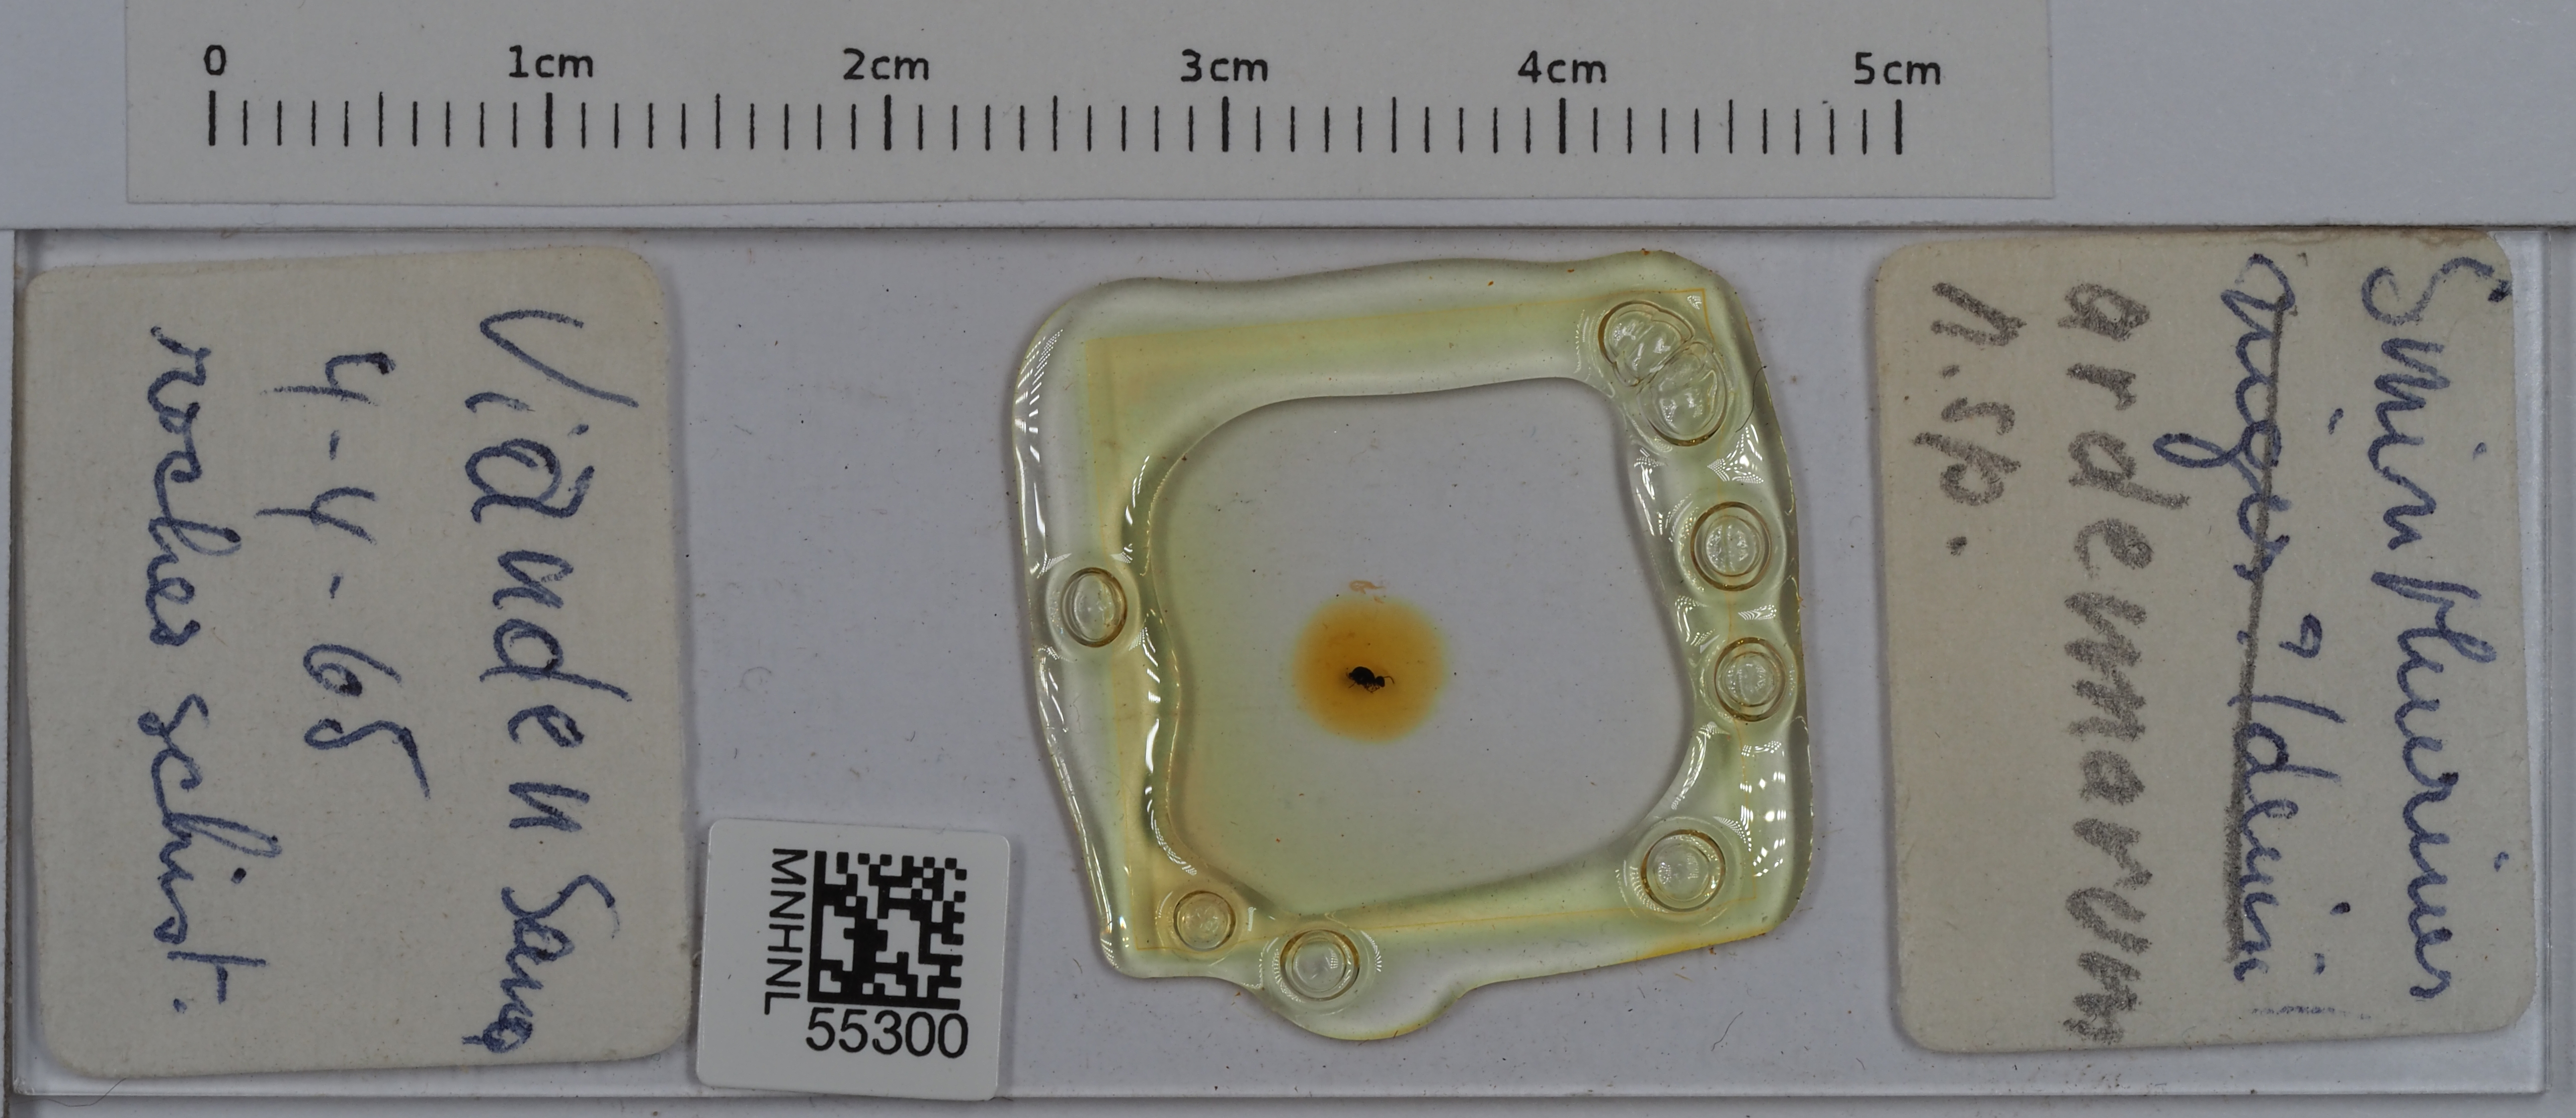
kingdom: Animalia
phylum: Arthropoda
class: Collembola
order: Symphypleona
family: Katiannidae
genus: Sminthurinus
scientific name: Sminthurinus
